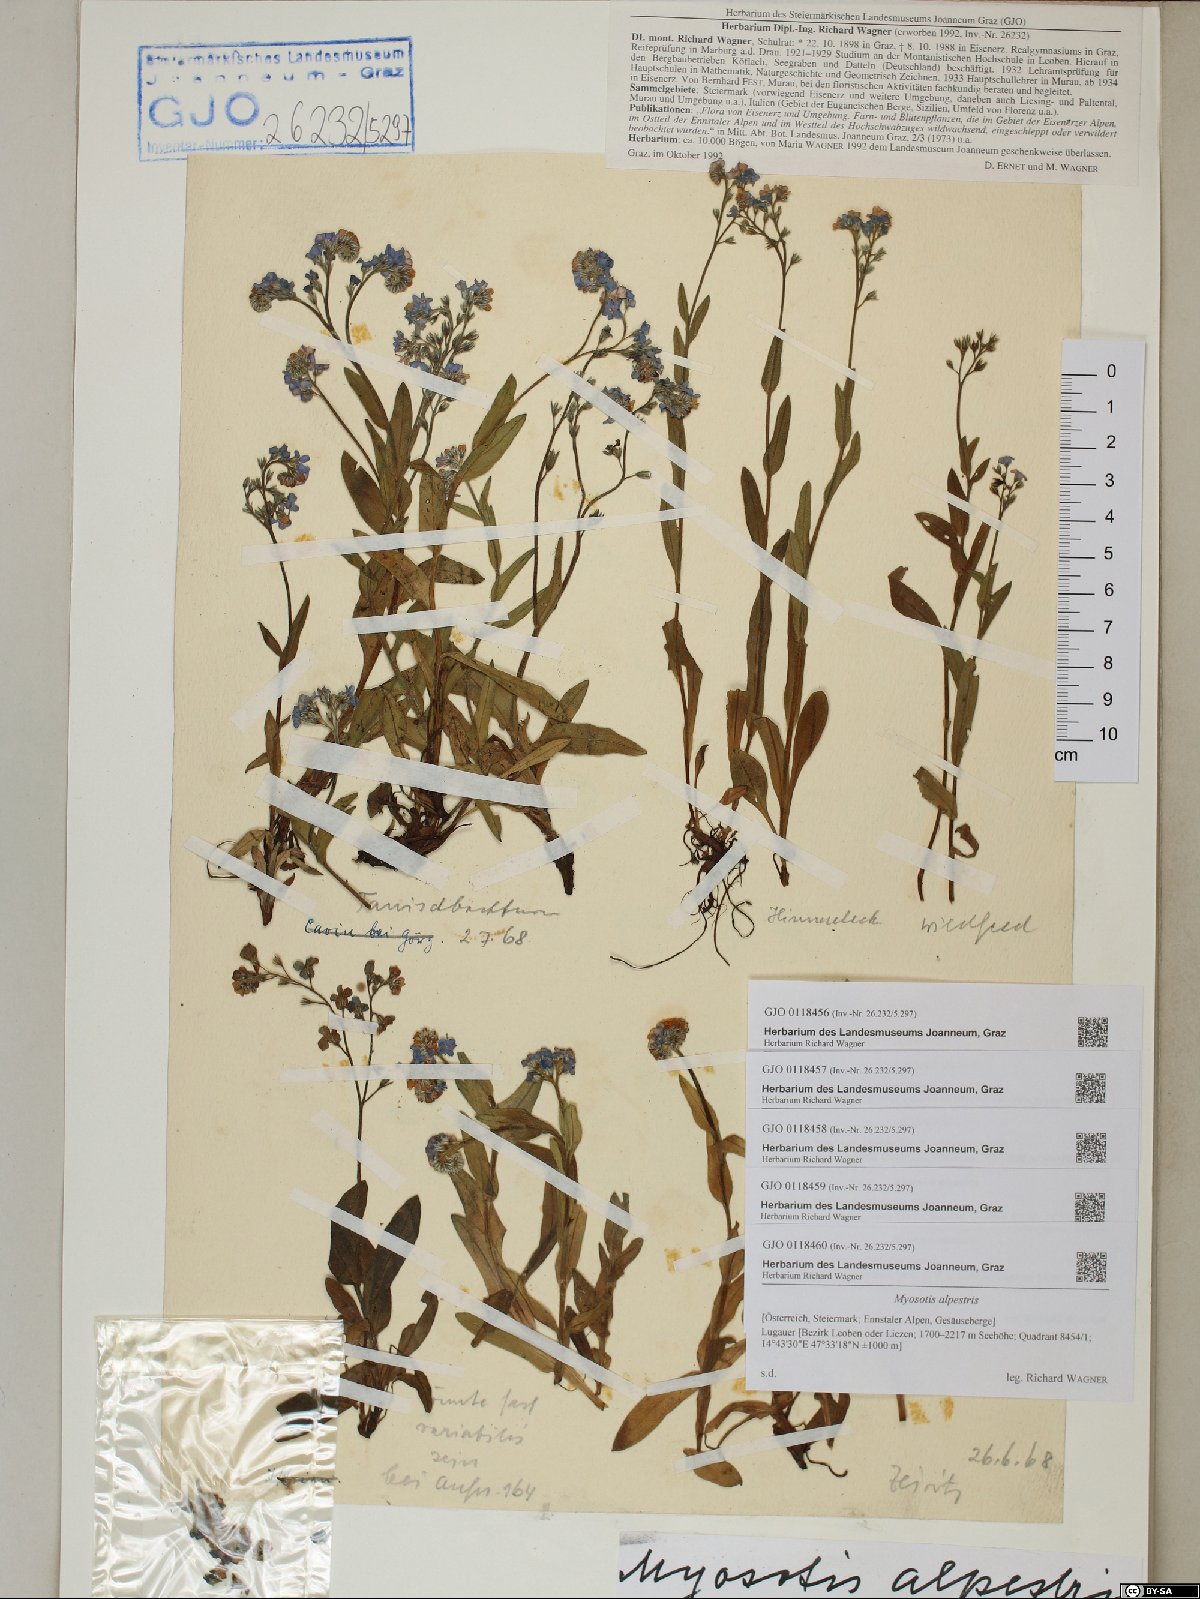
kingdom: Plantae
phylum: Tracheophyta
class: Magnoliopsida
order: Boraginales
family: Boraginaceae
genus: Myosotis
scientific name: Myosotis alpestris
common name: Alpine forget-me-not
